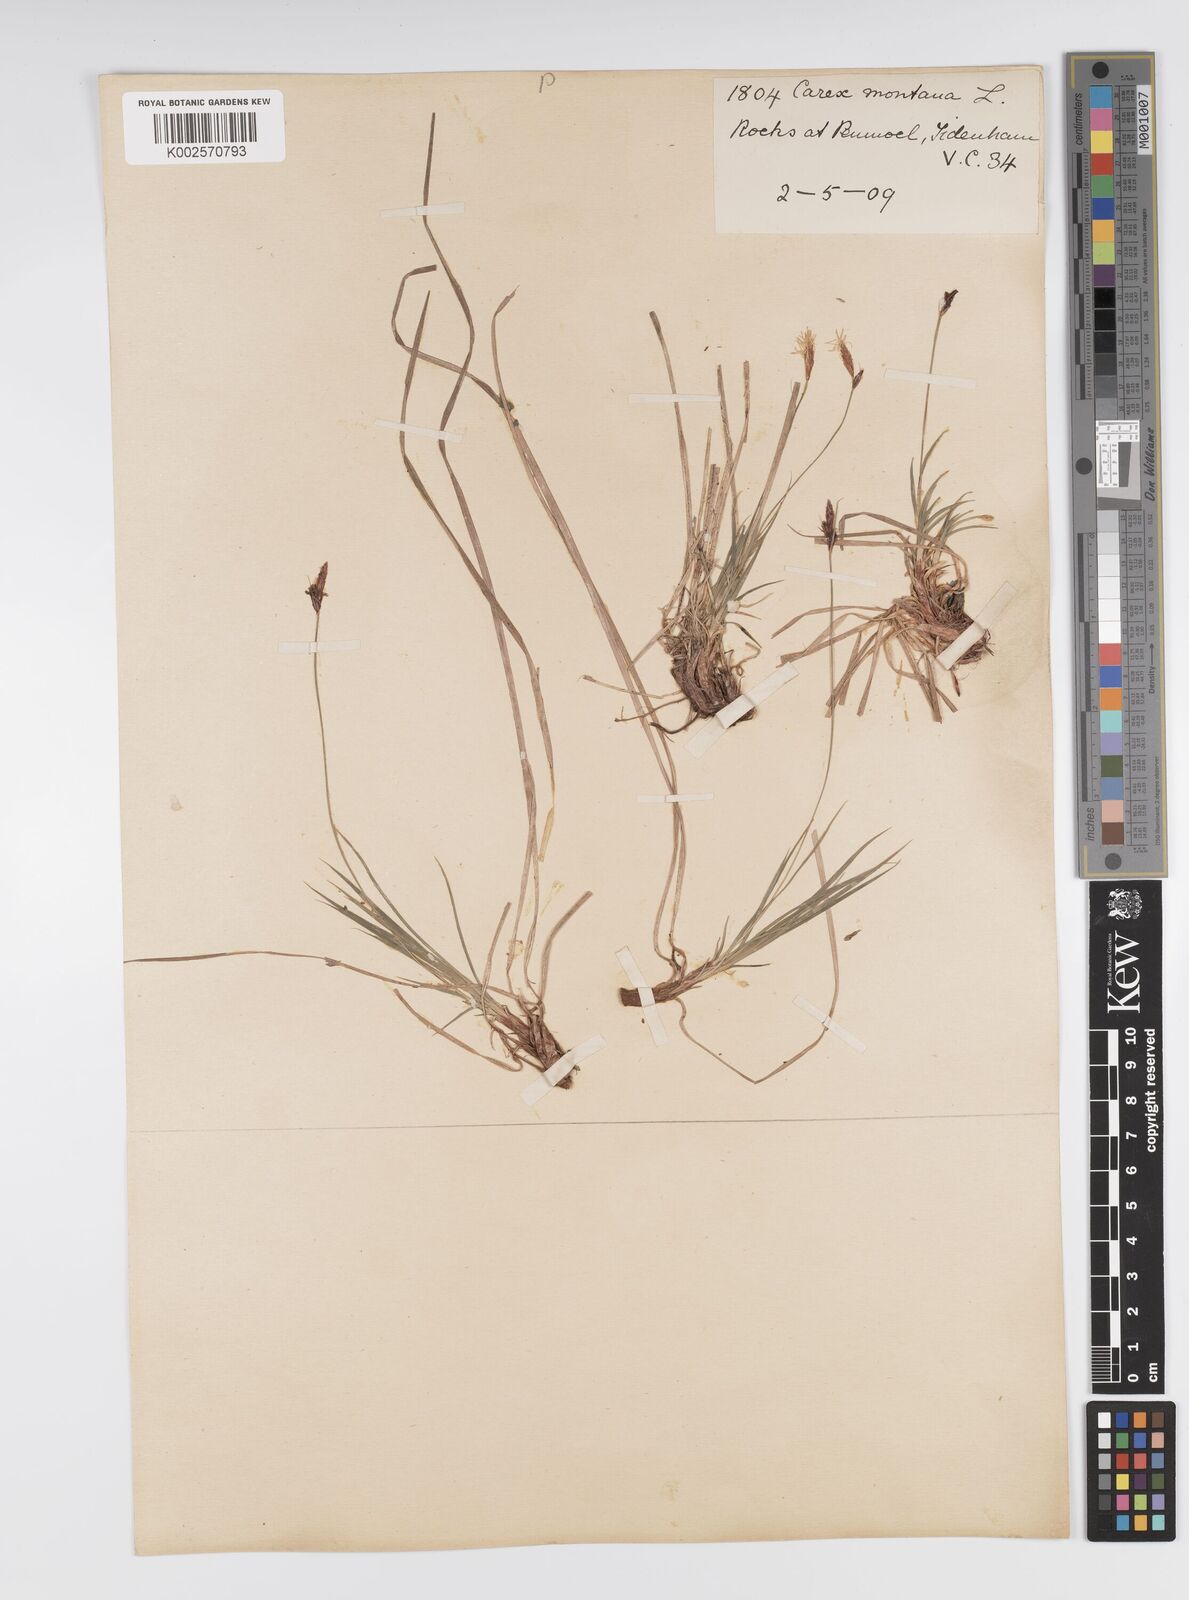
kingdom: Plantae
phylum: Tracheophyta
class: Liliopsida
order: Poales
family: Cyperaceae
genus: Carex
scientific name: Carex montana
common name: Soft-leaved sedge
